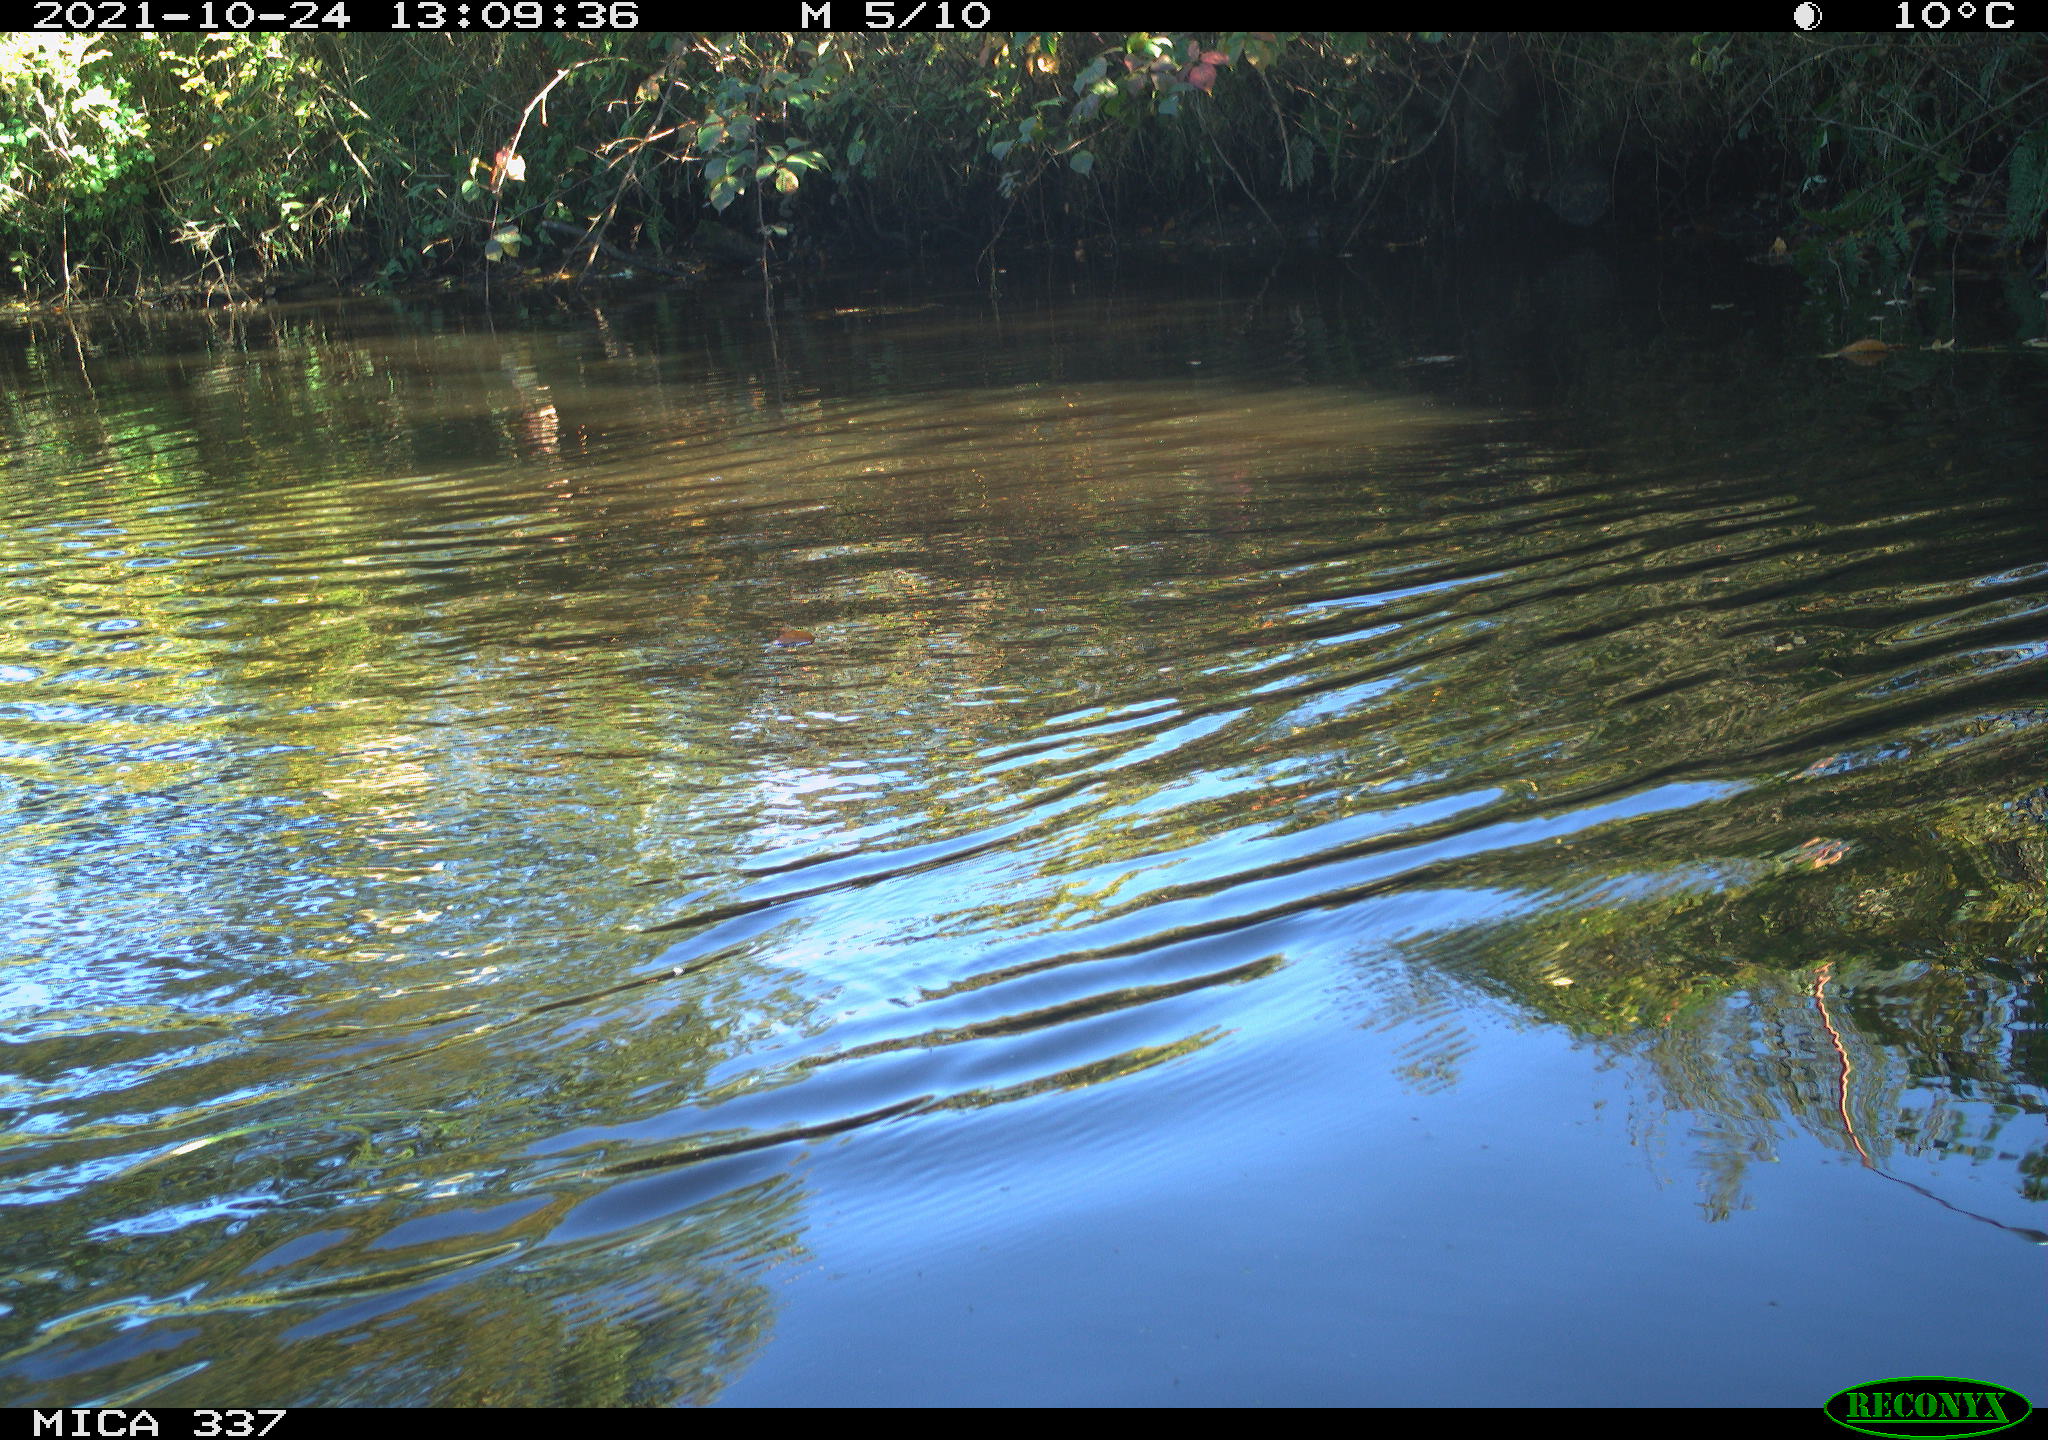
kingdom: Animalia
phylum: Chordata
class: Aves
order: Anseriformes
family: Anatidae
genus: Anas
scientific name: Anas platyrhynchos
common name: Mallard
